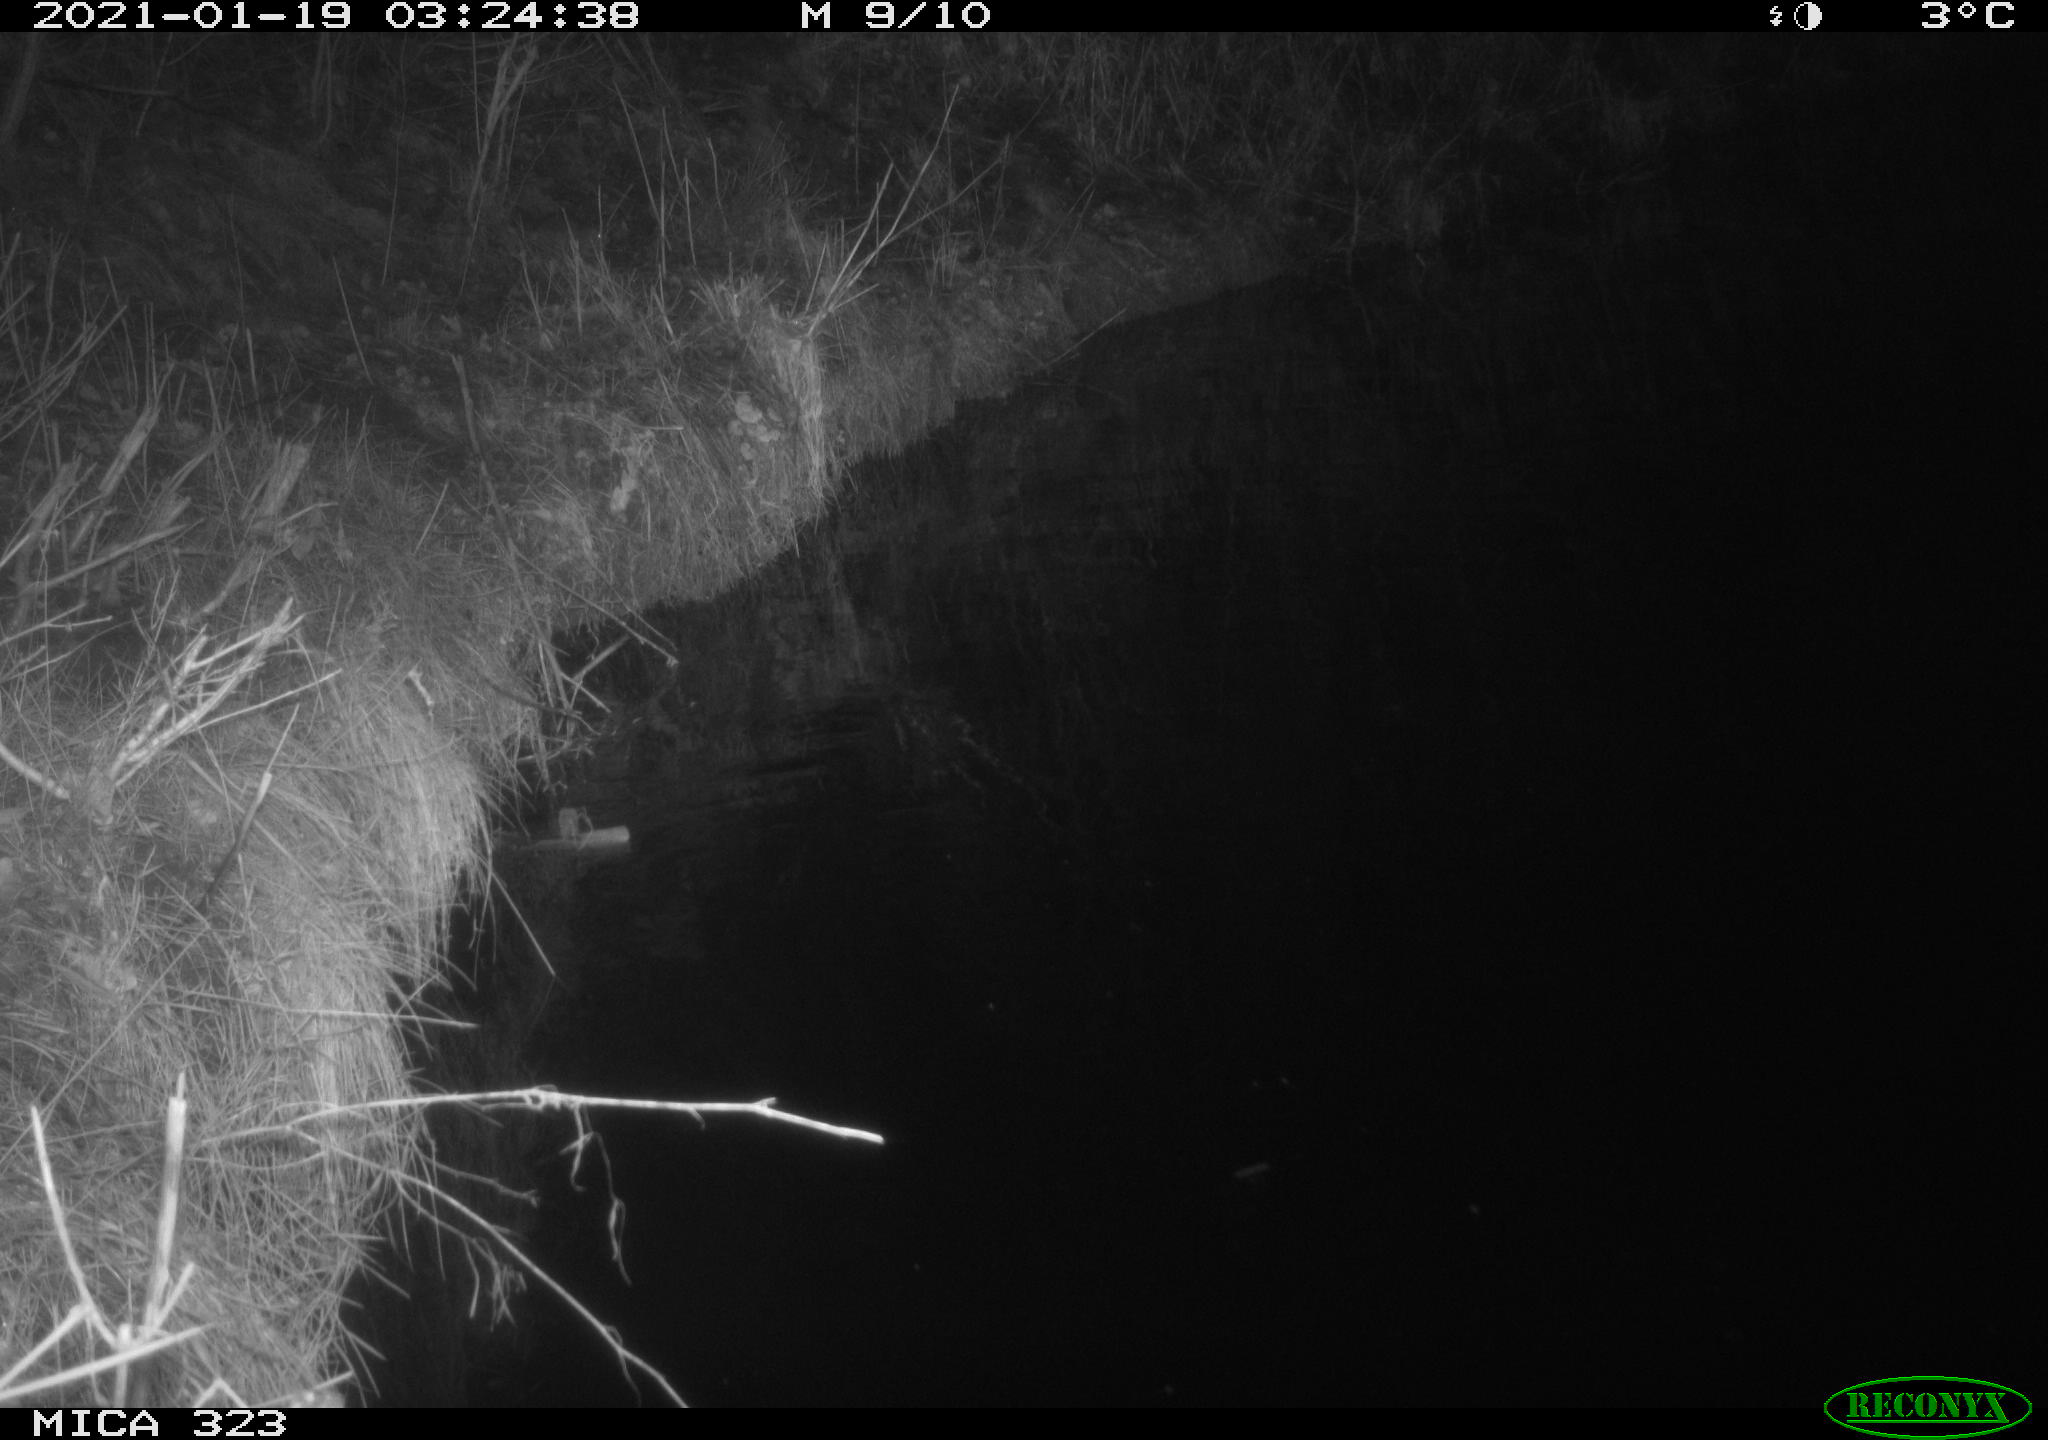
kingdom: Animalia
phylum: Chordata
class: Mammalia
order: Rodentia
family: Myocastoridae
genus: Myocastor
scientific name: Myocastor coypus
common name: Coypu
